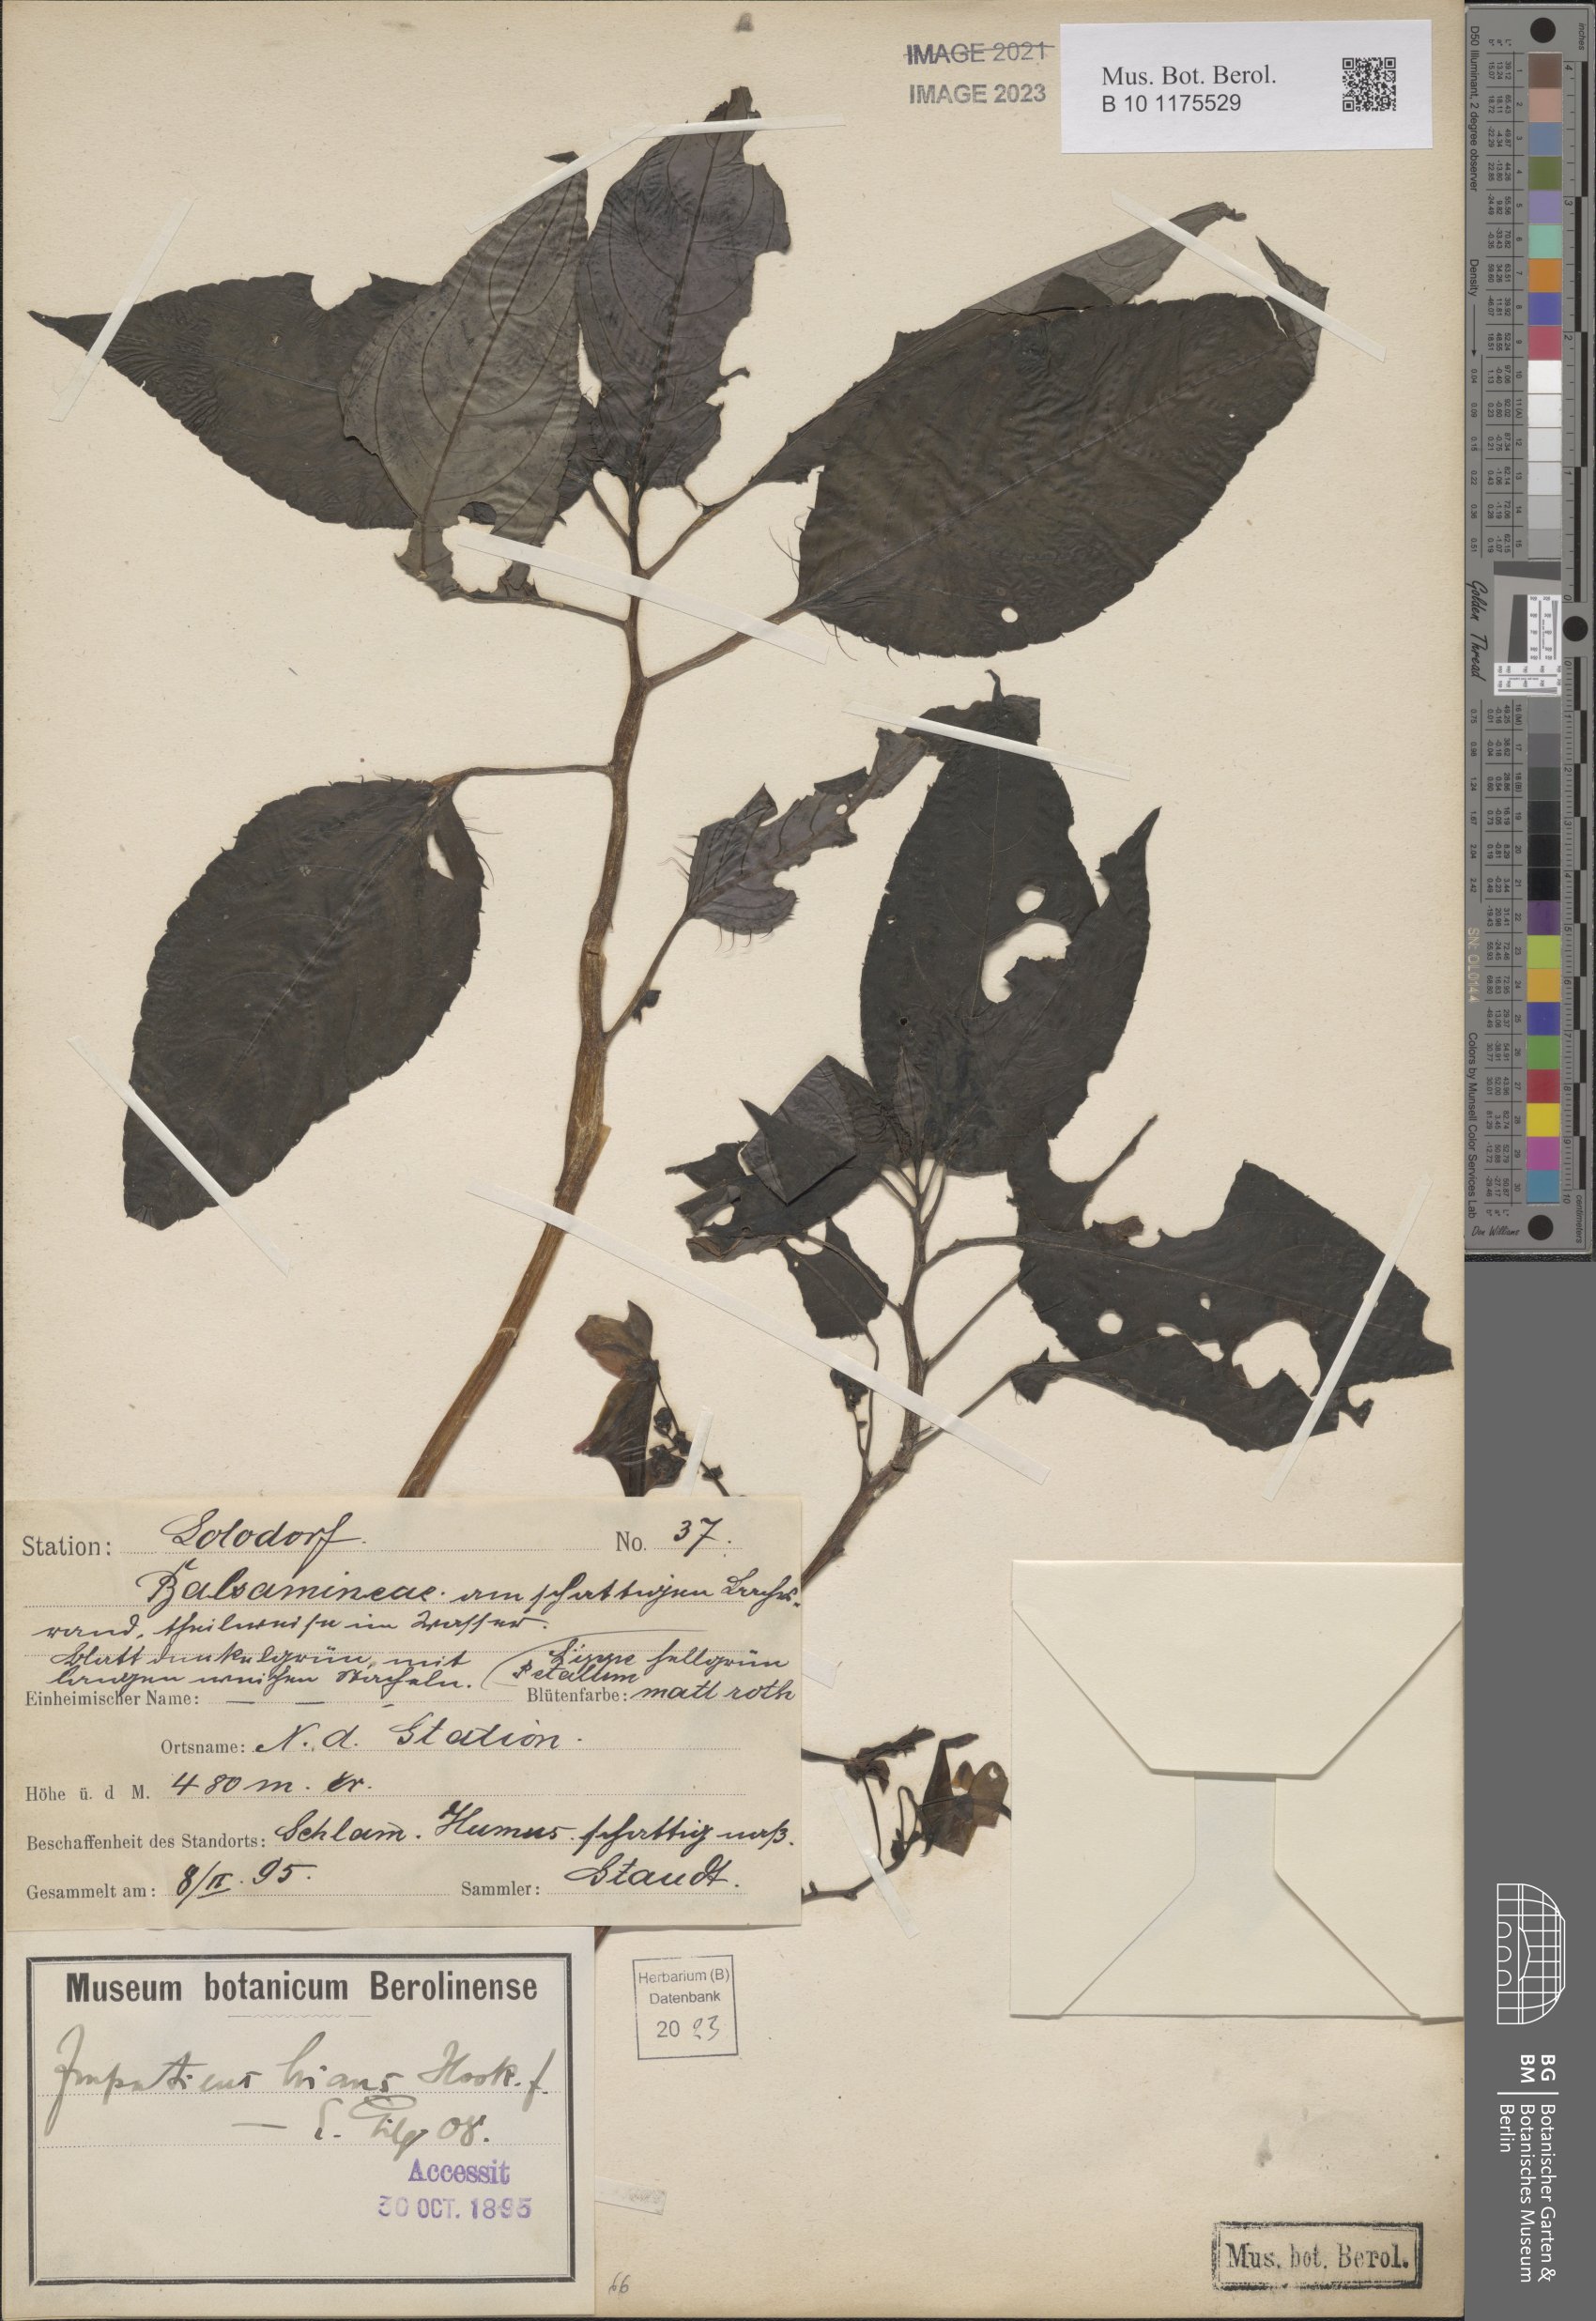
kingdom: Plantae
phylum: Tracheophyta
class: Magnoliopsida
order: Ericales
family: Balsaminaceae
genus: Impatiens
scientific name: Impatiens hians
